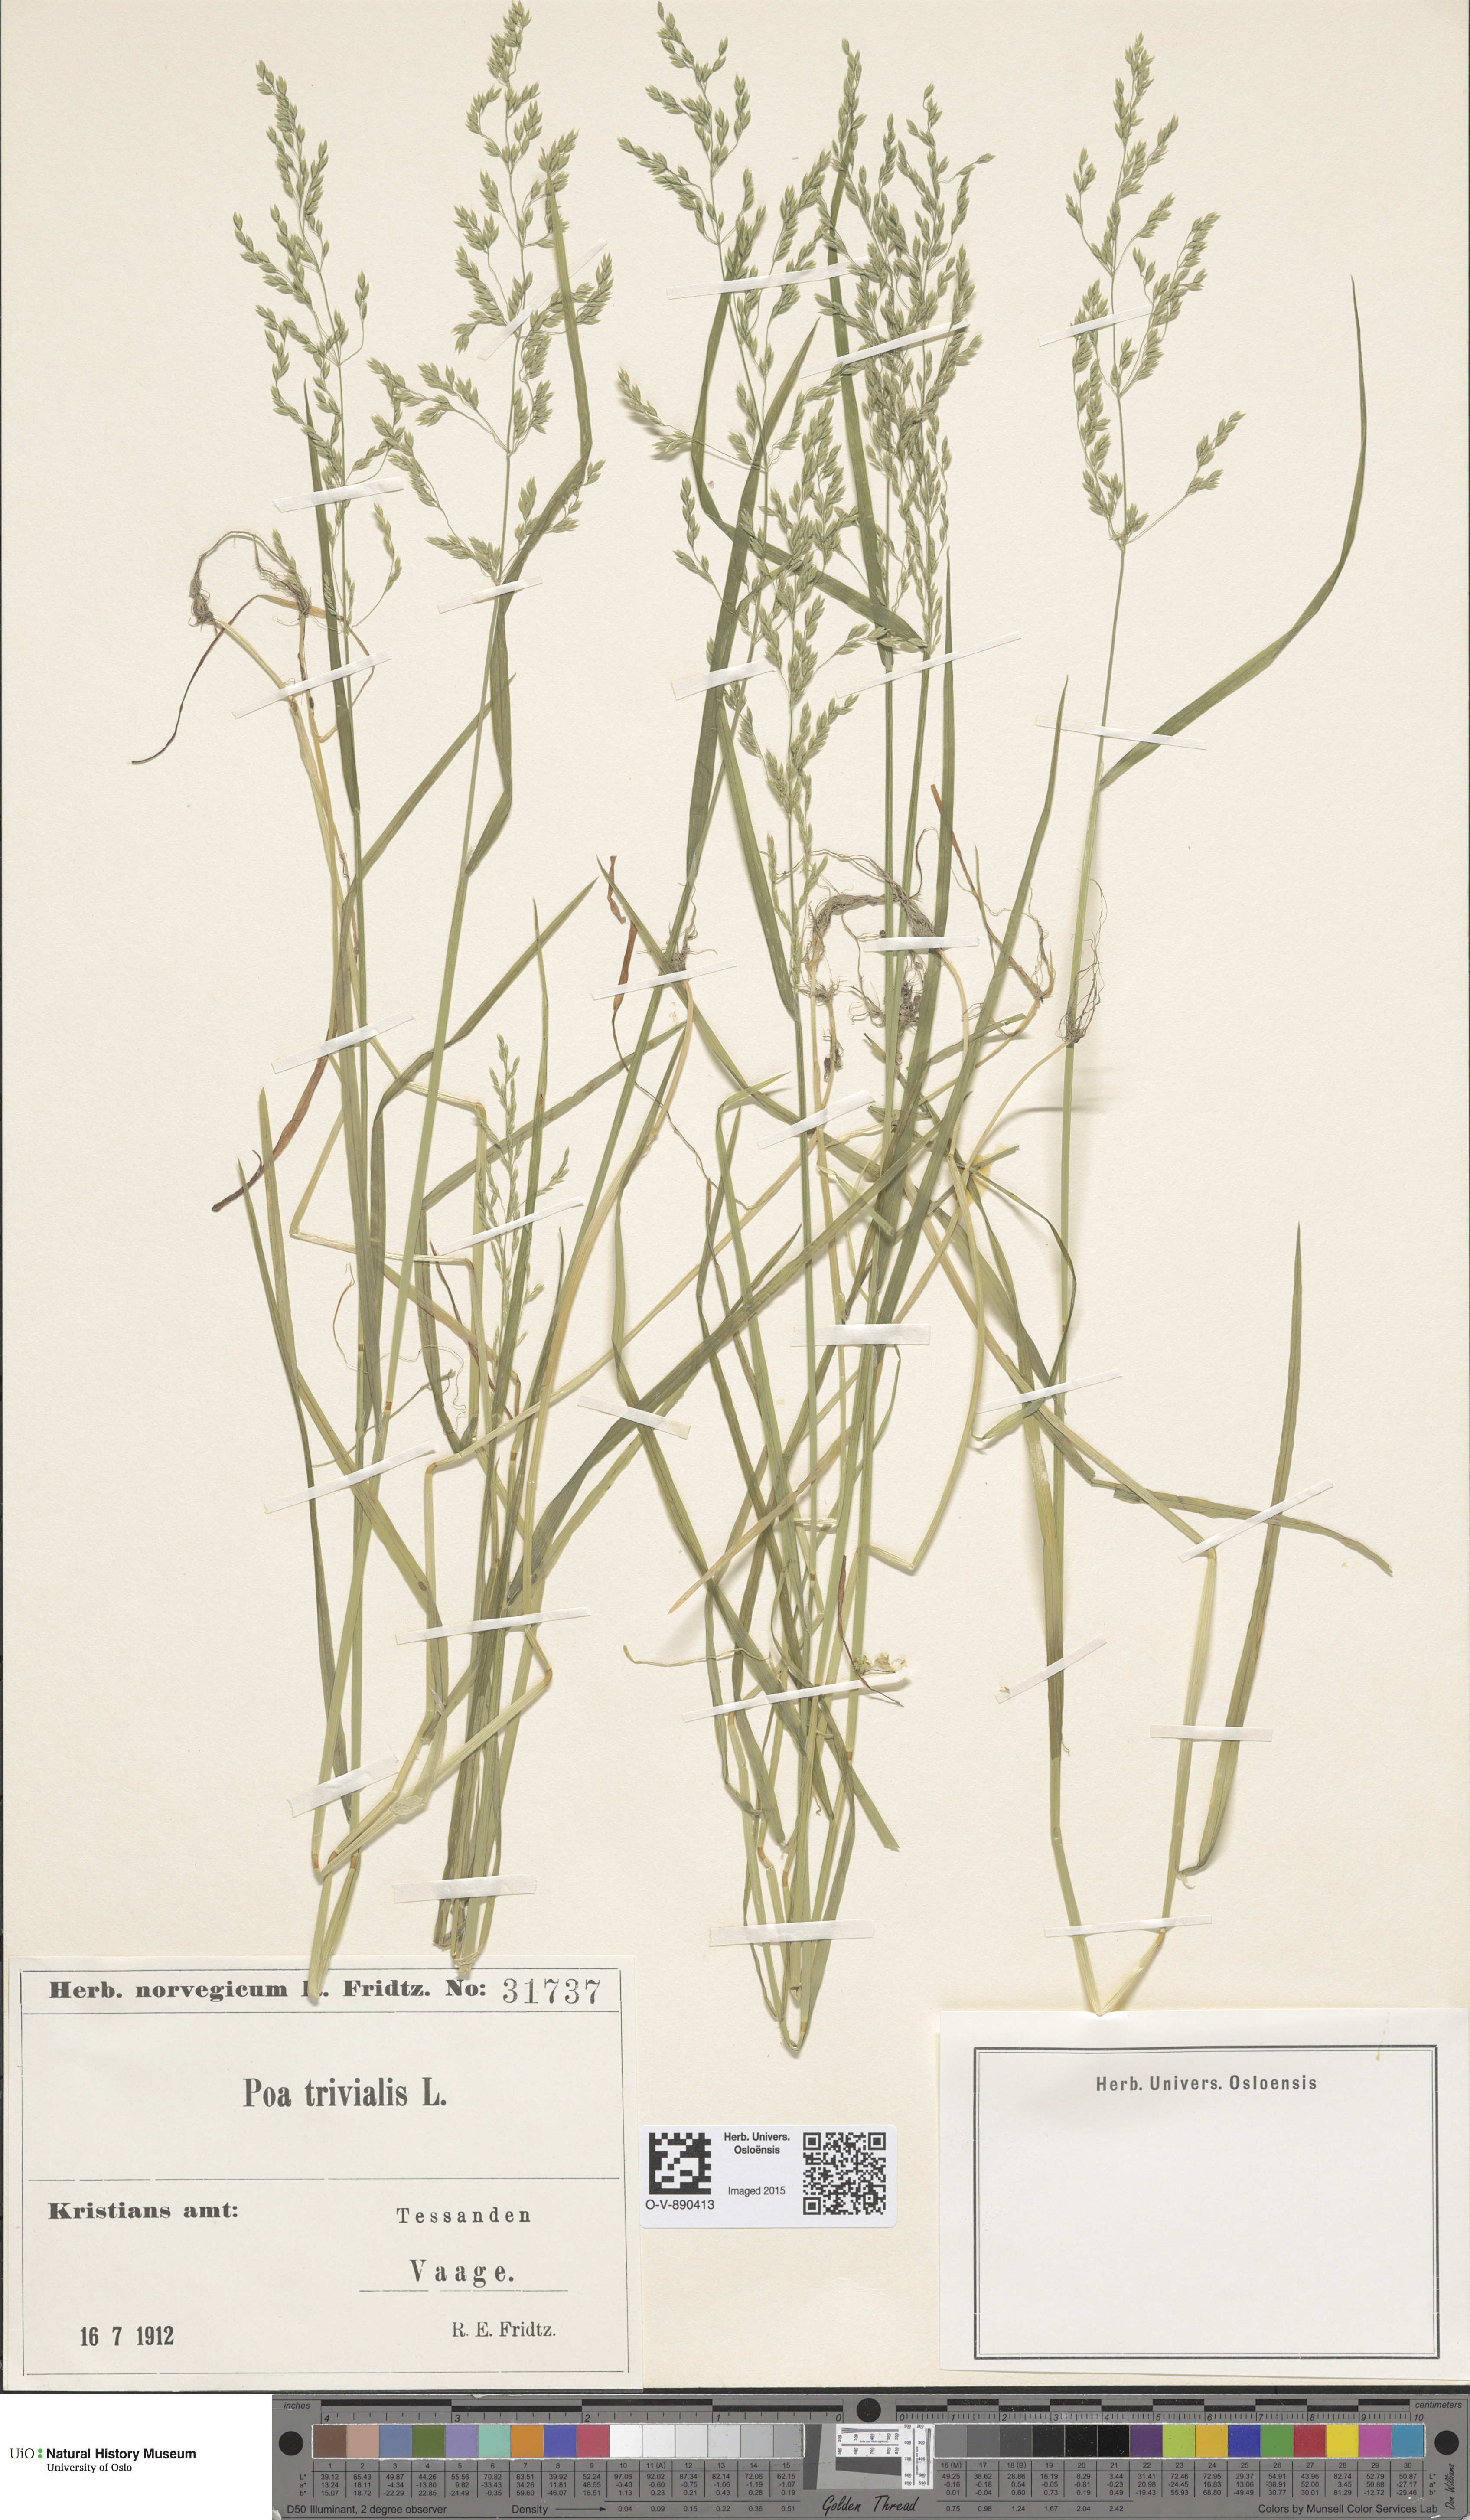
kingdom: Plantae
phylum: Tracheophyta
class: Liliopsida
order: Poales
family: Poaceae
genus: Poa
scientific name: Poa trivialis
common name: Rough bluegrass
